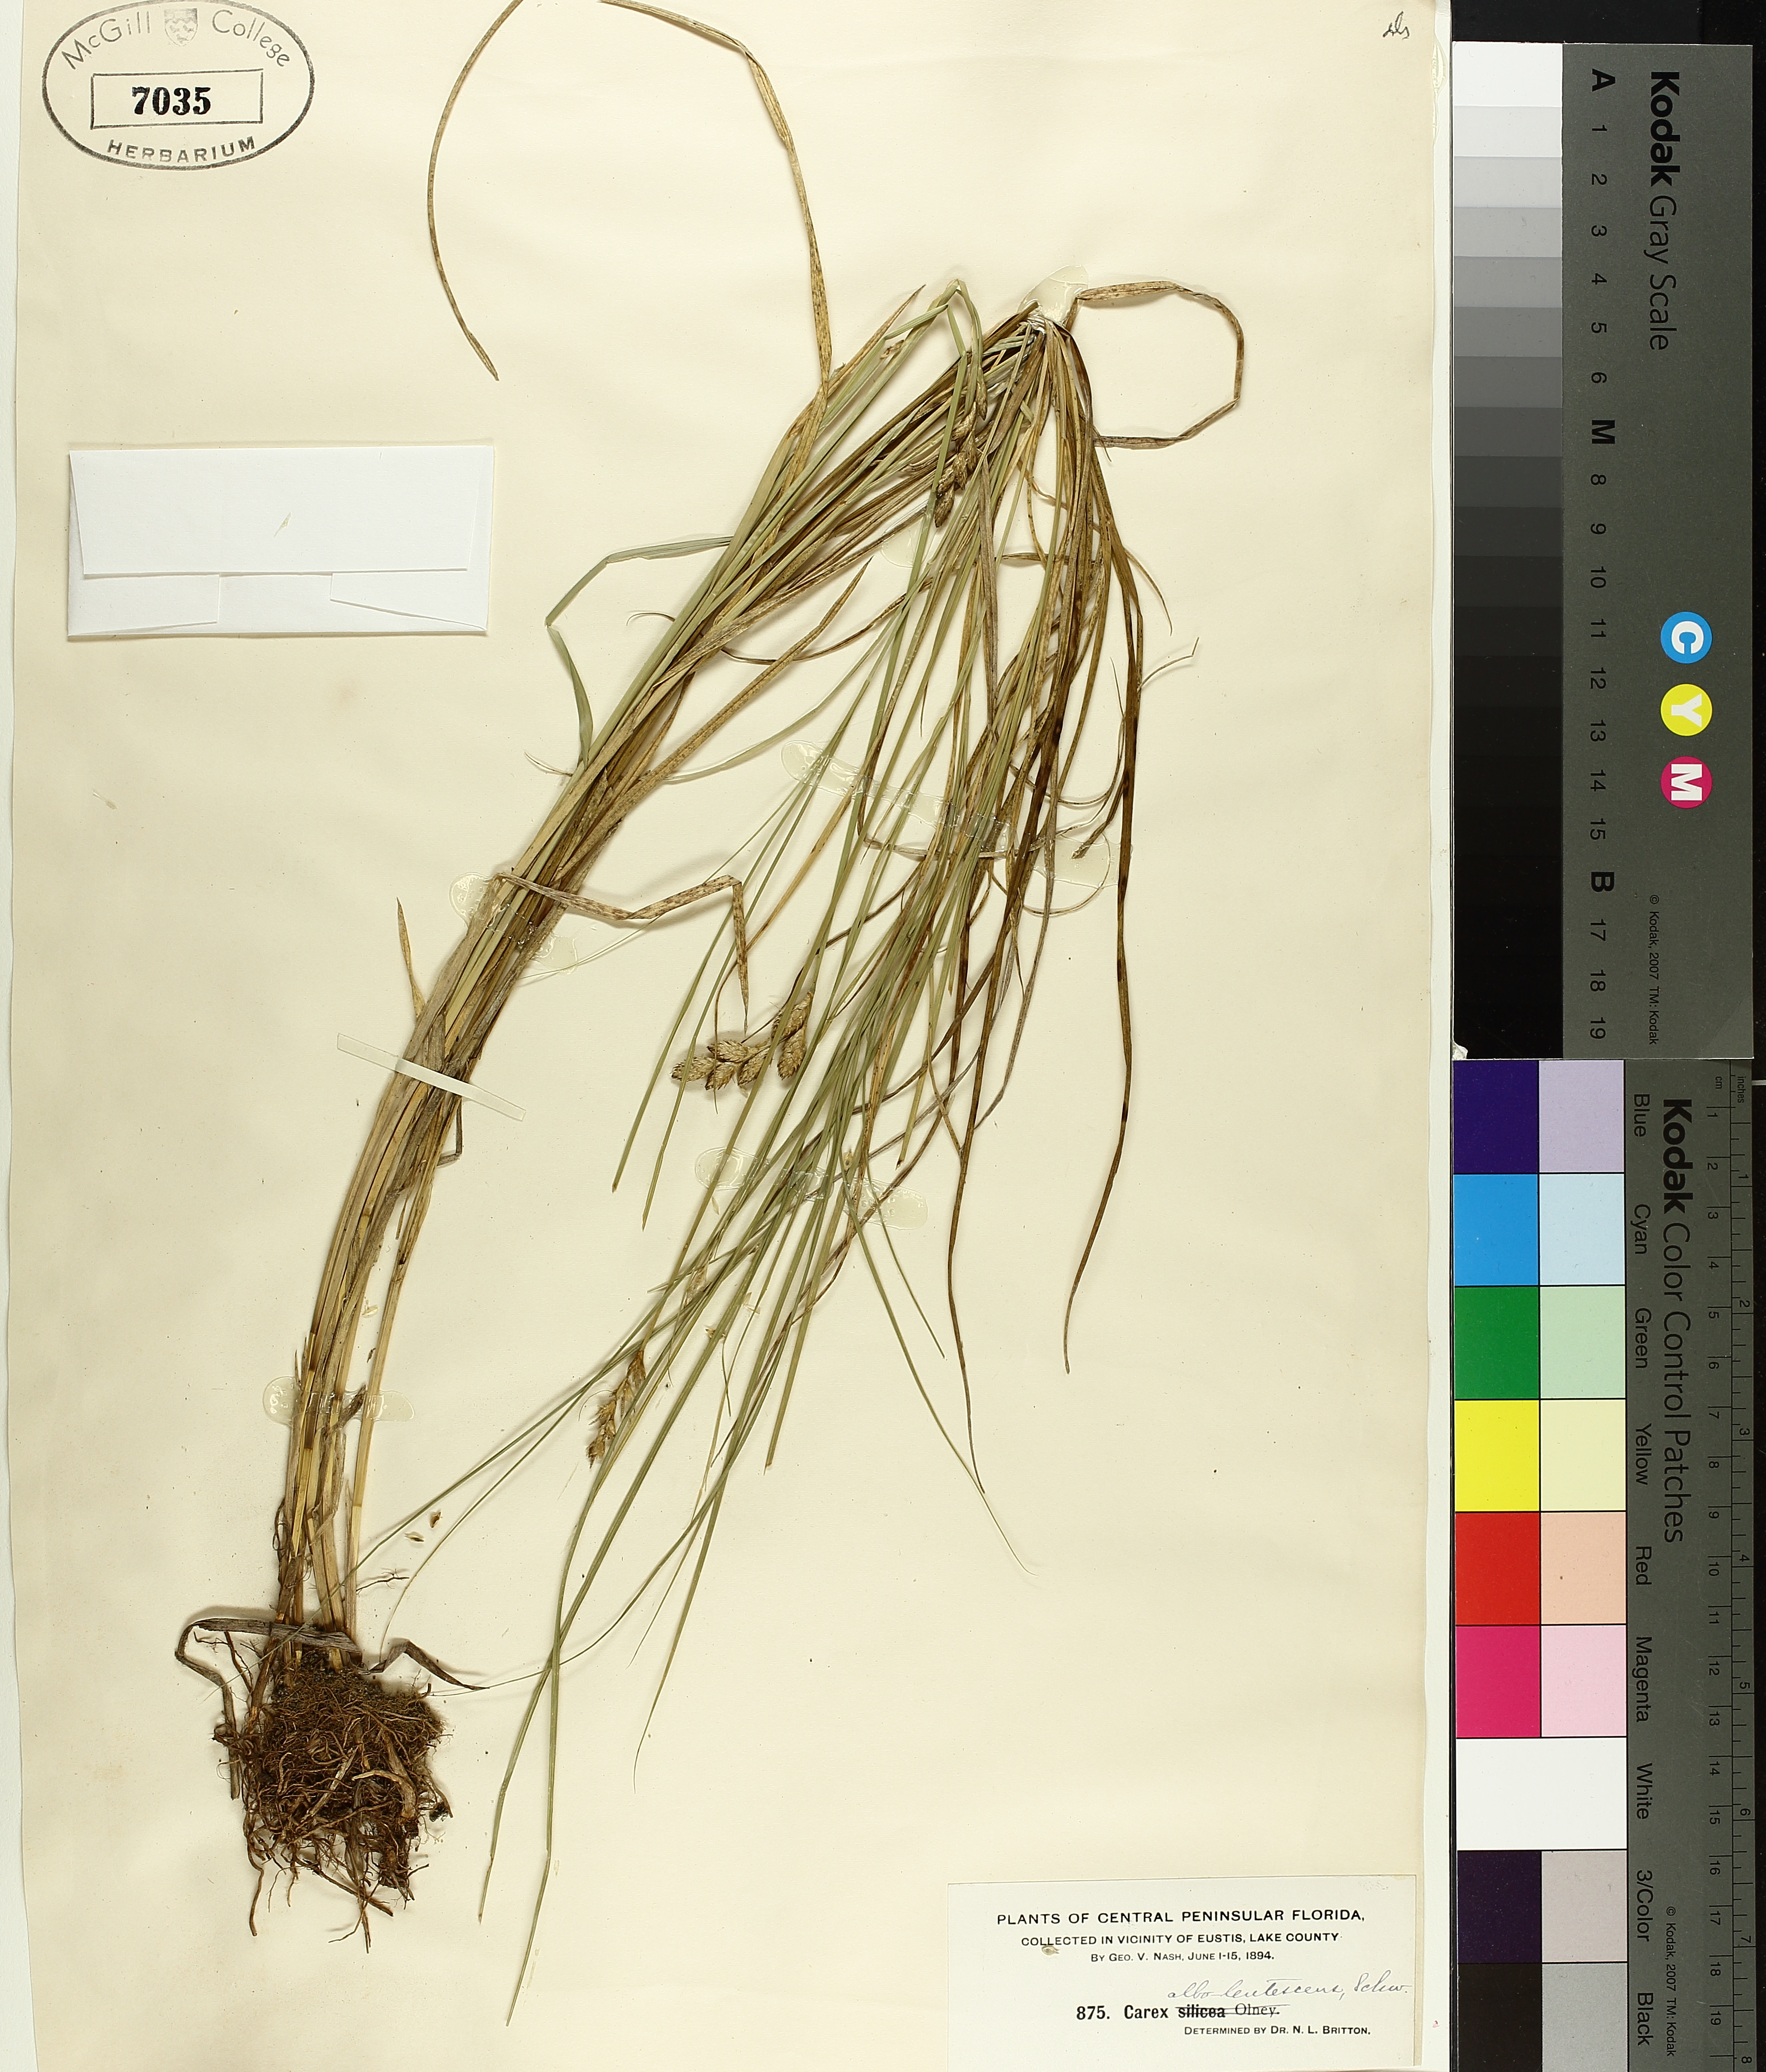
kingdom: Plantae
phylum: Tracheophyta
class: Liliopsida
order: Poales
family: Cyperaceae
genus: Carex
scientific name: Carex albolutescens
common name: Freenish white sedge
